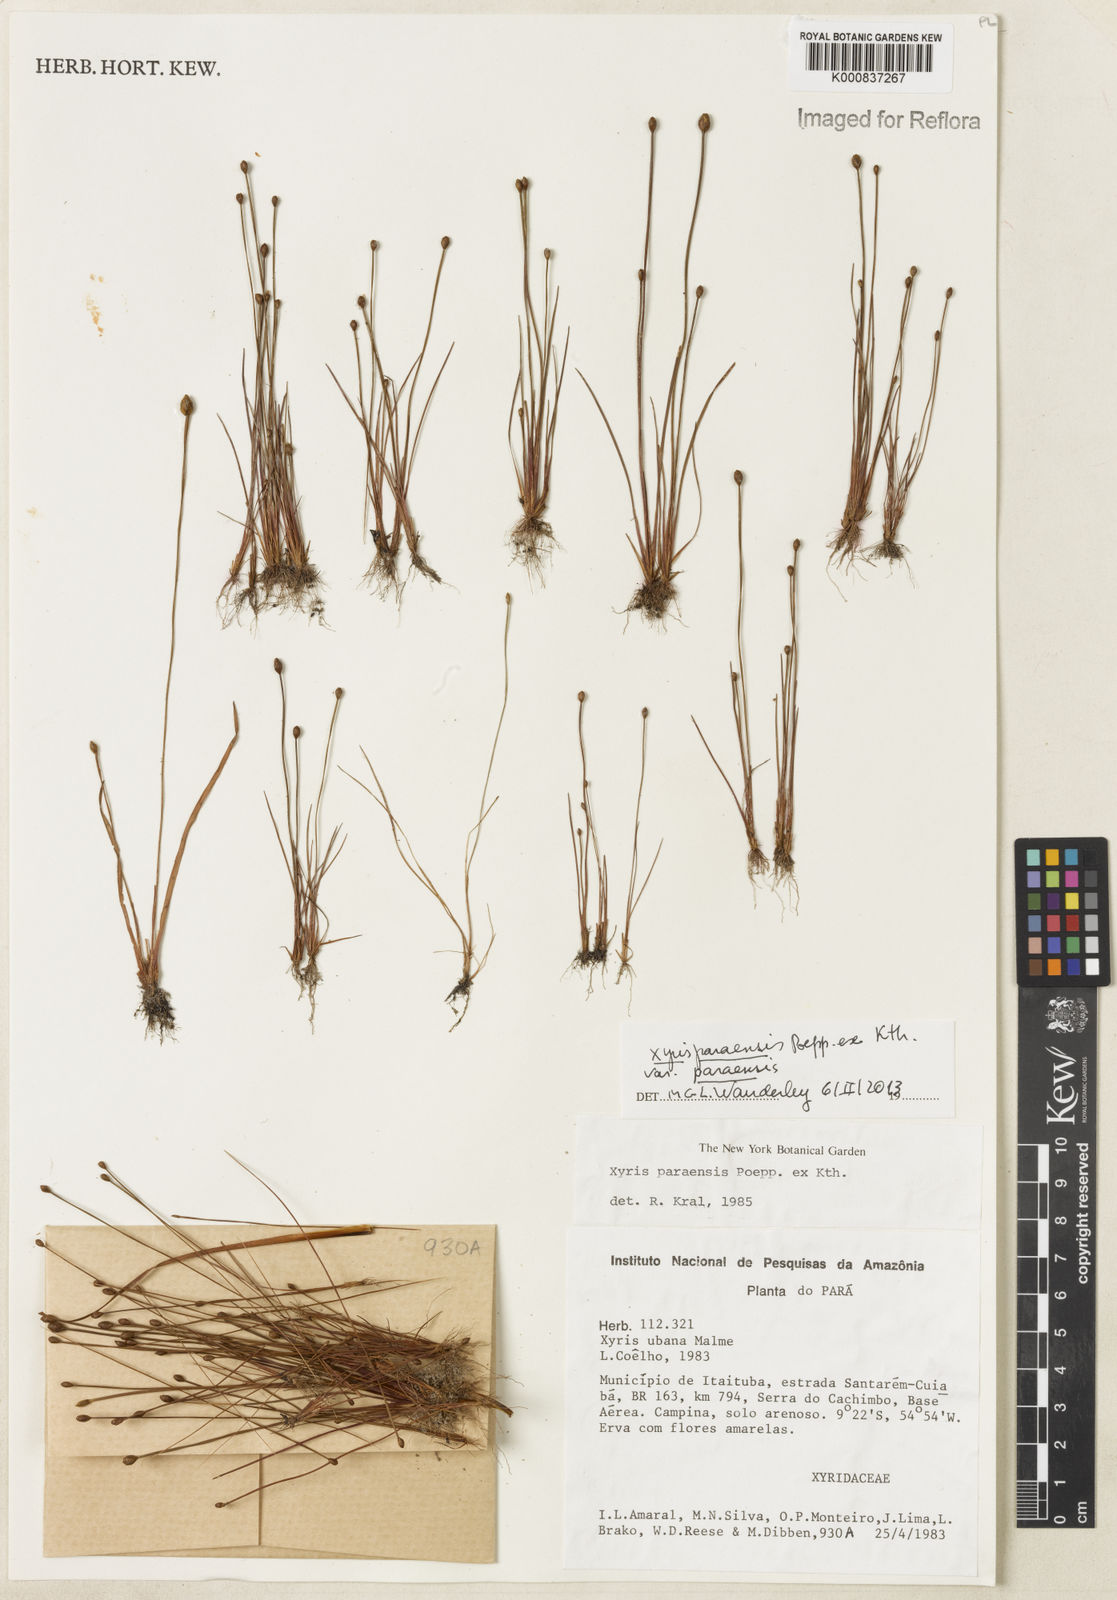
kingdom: Plantae
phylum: Tracheophyta
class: Liliopsida
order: Poales
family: Xyridaceae
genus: Xyris
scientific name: Xyris paraensis
